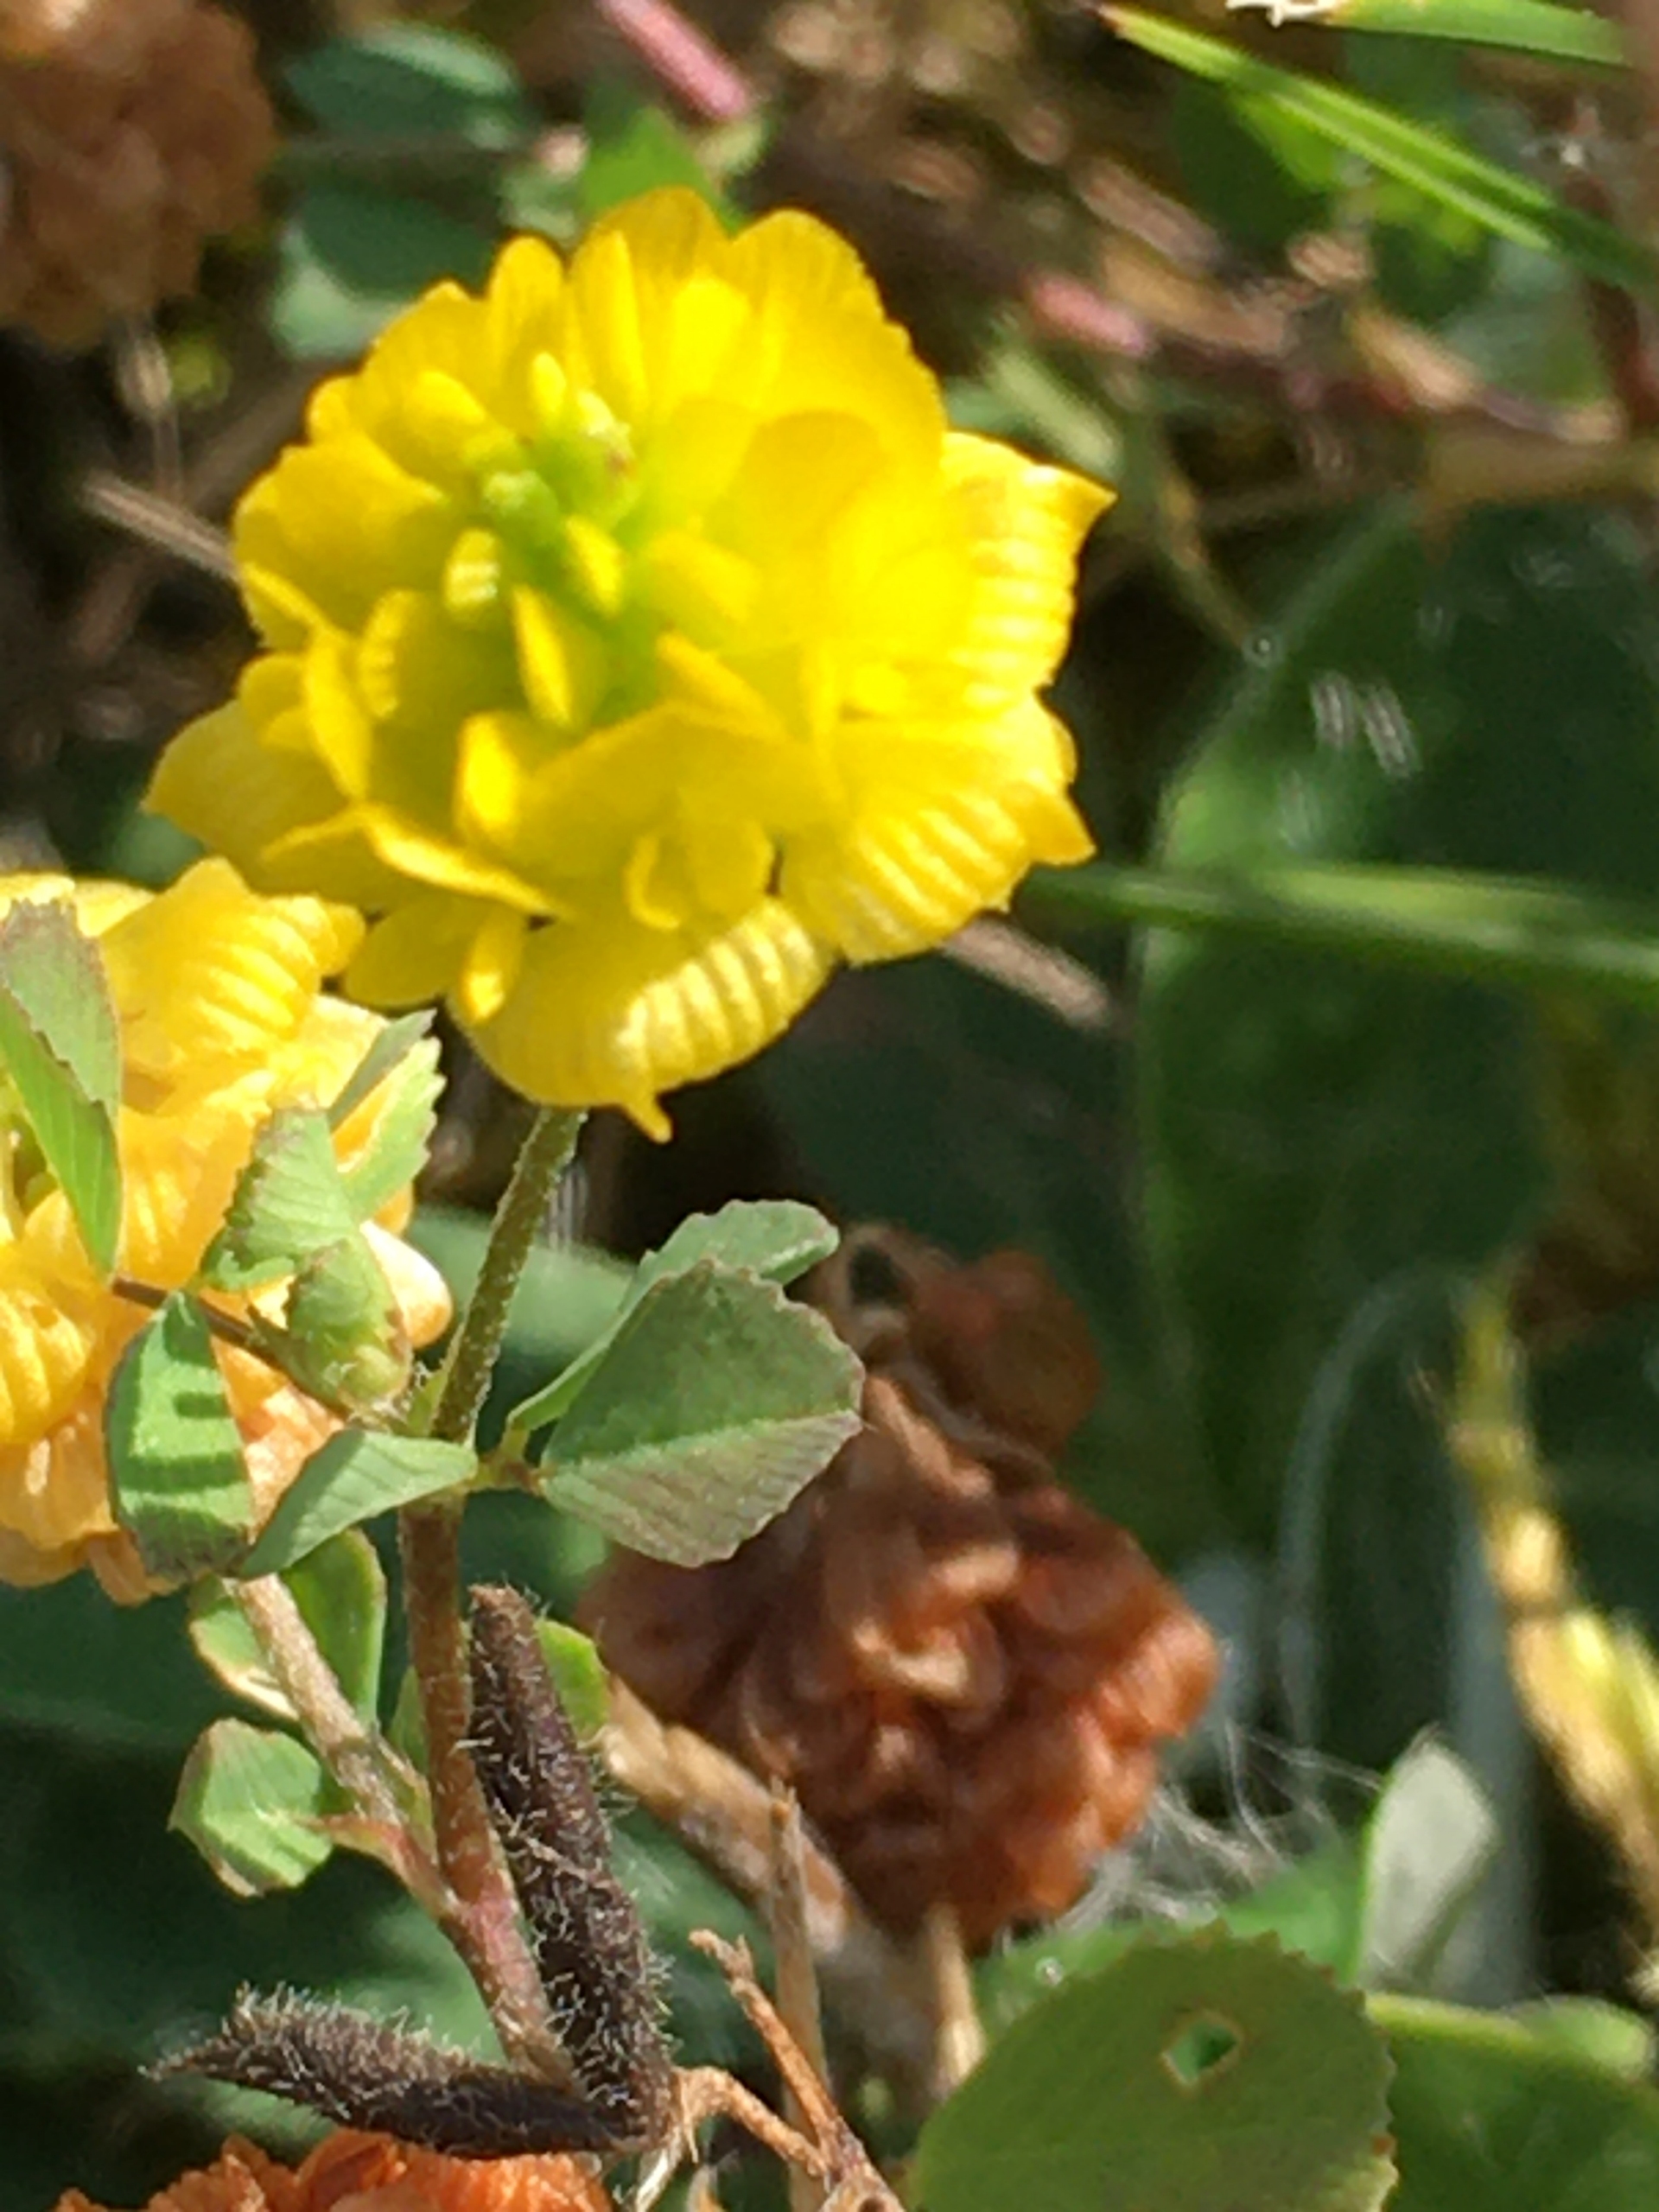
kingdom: Plantae
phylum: Tracheophyta
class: Magnoliopsida
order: Fabales
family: Fabaceae
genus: Trifolium
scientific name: Trifolium campestre
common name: Gul kløver
